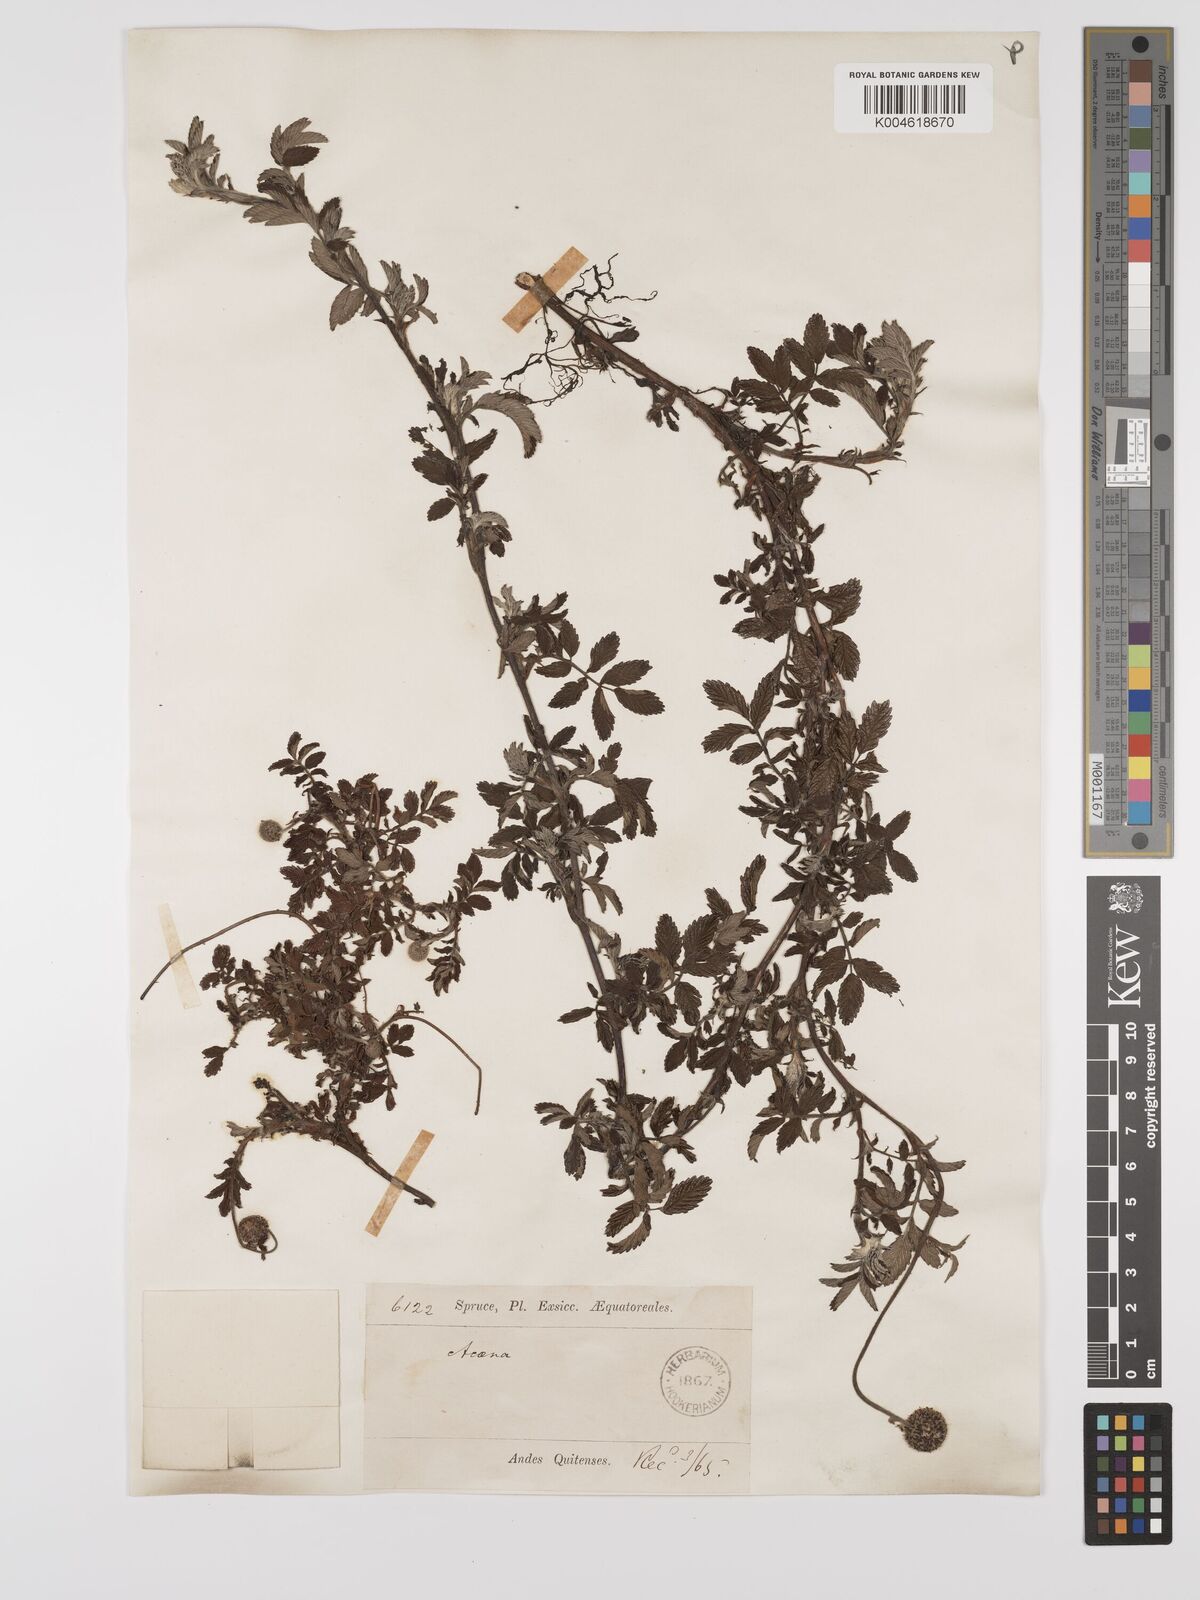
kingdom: Plantae
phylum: Tracheophyta
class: Magnoliopsida
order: Rosales
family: Rosaceae
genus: Acaena
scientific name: Acaena ovalifolia
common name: Two-spined acaena
